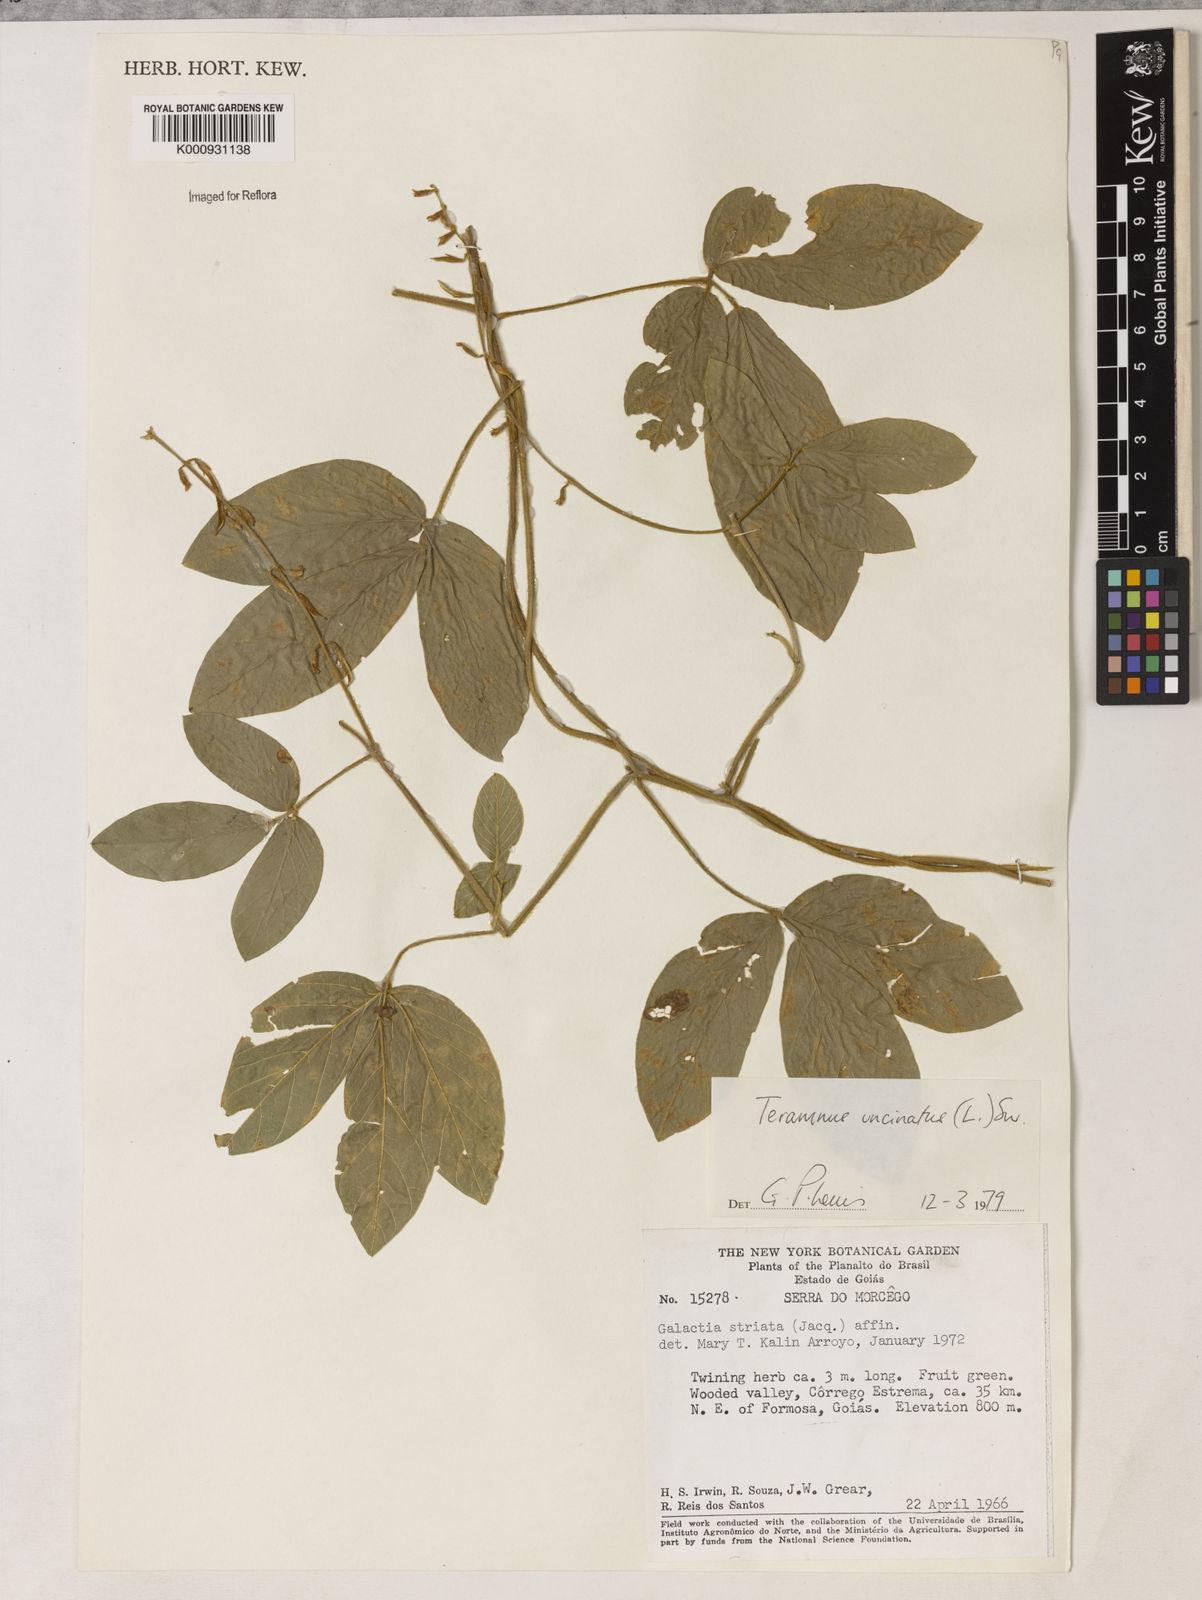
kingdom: Plantae
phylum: Tracheophyta
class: Magnoliopsida
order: Fabales
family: Fabaceae
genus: Teramnus
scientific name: Teramnus uncinatus
